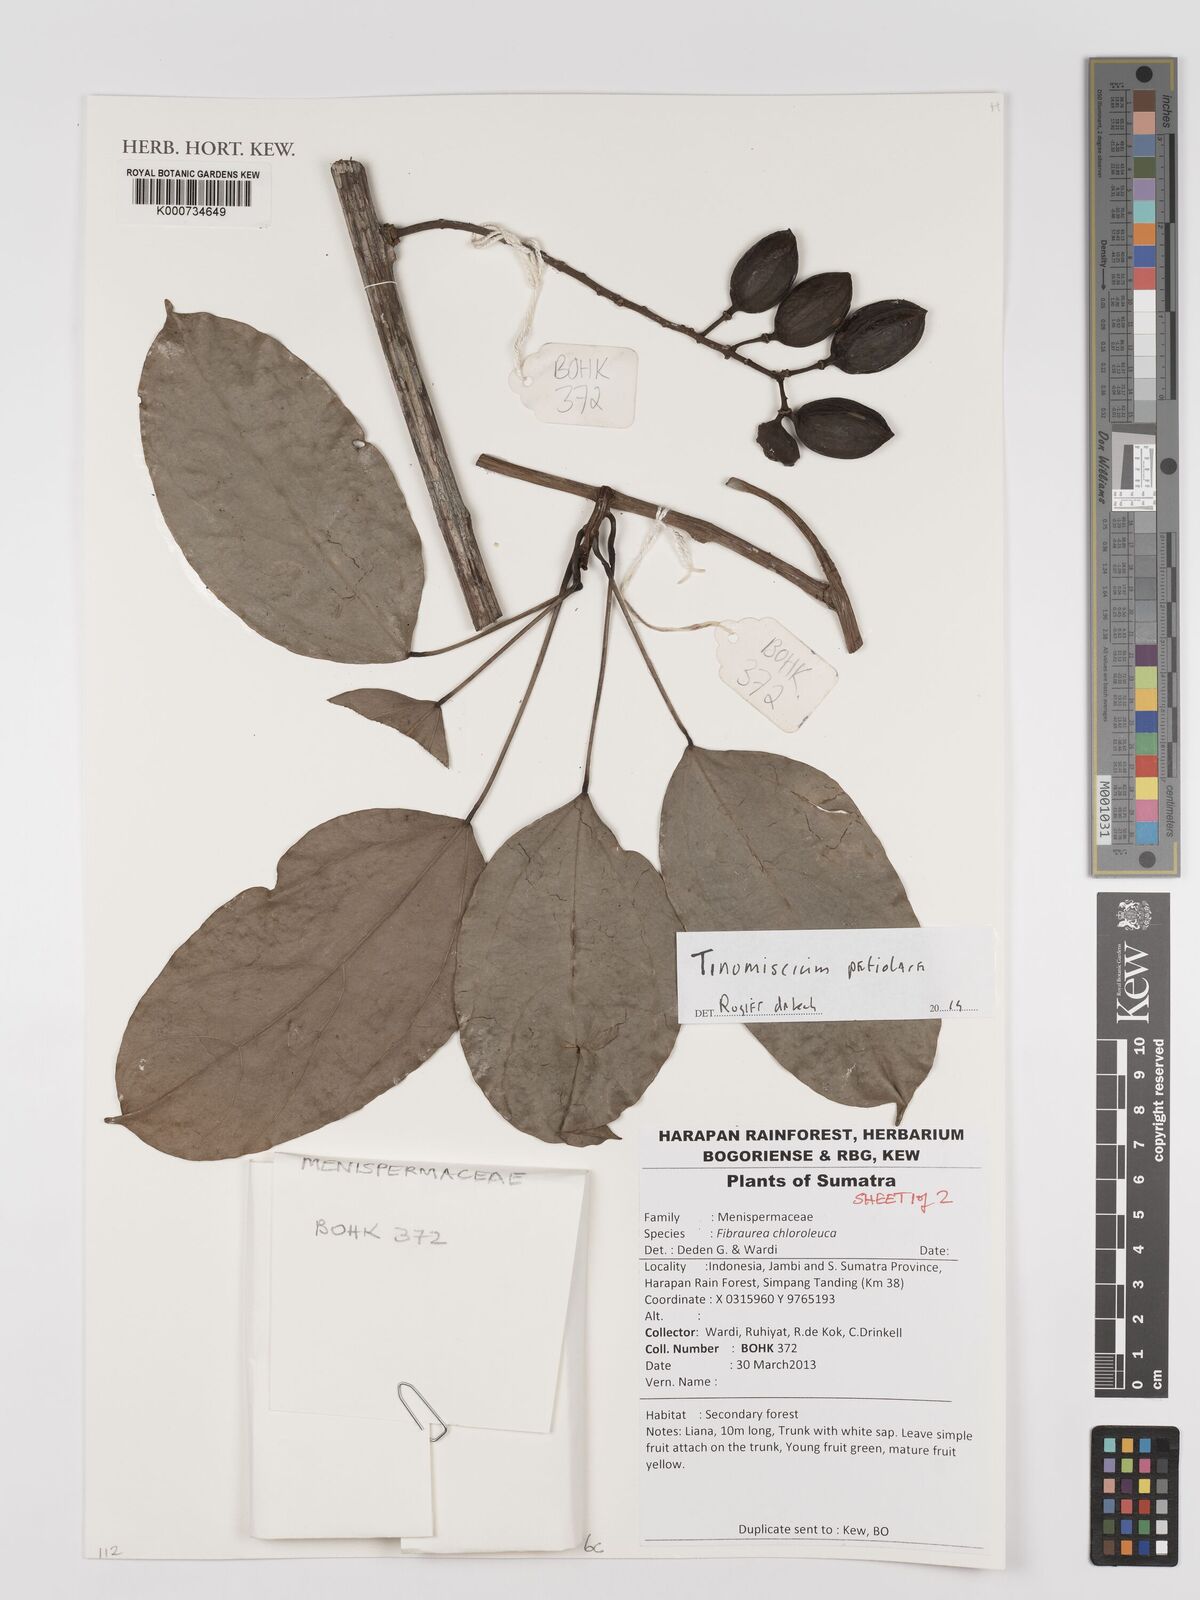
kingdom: Plantae
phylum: Tracheophyta
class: Magnoliopsida
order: Ranunculales
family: Menispermaceae
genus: Tinomiscium
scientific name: Tinomiscium petiolare
